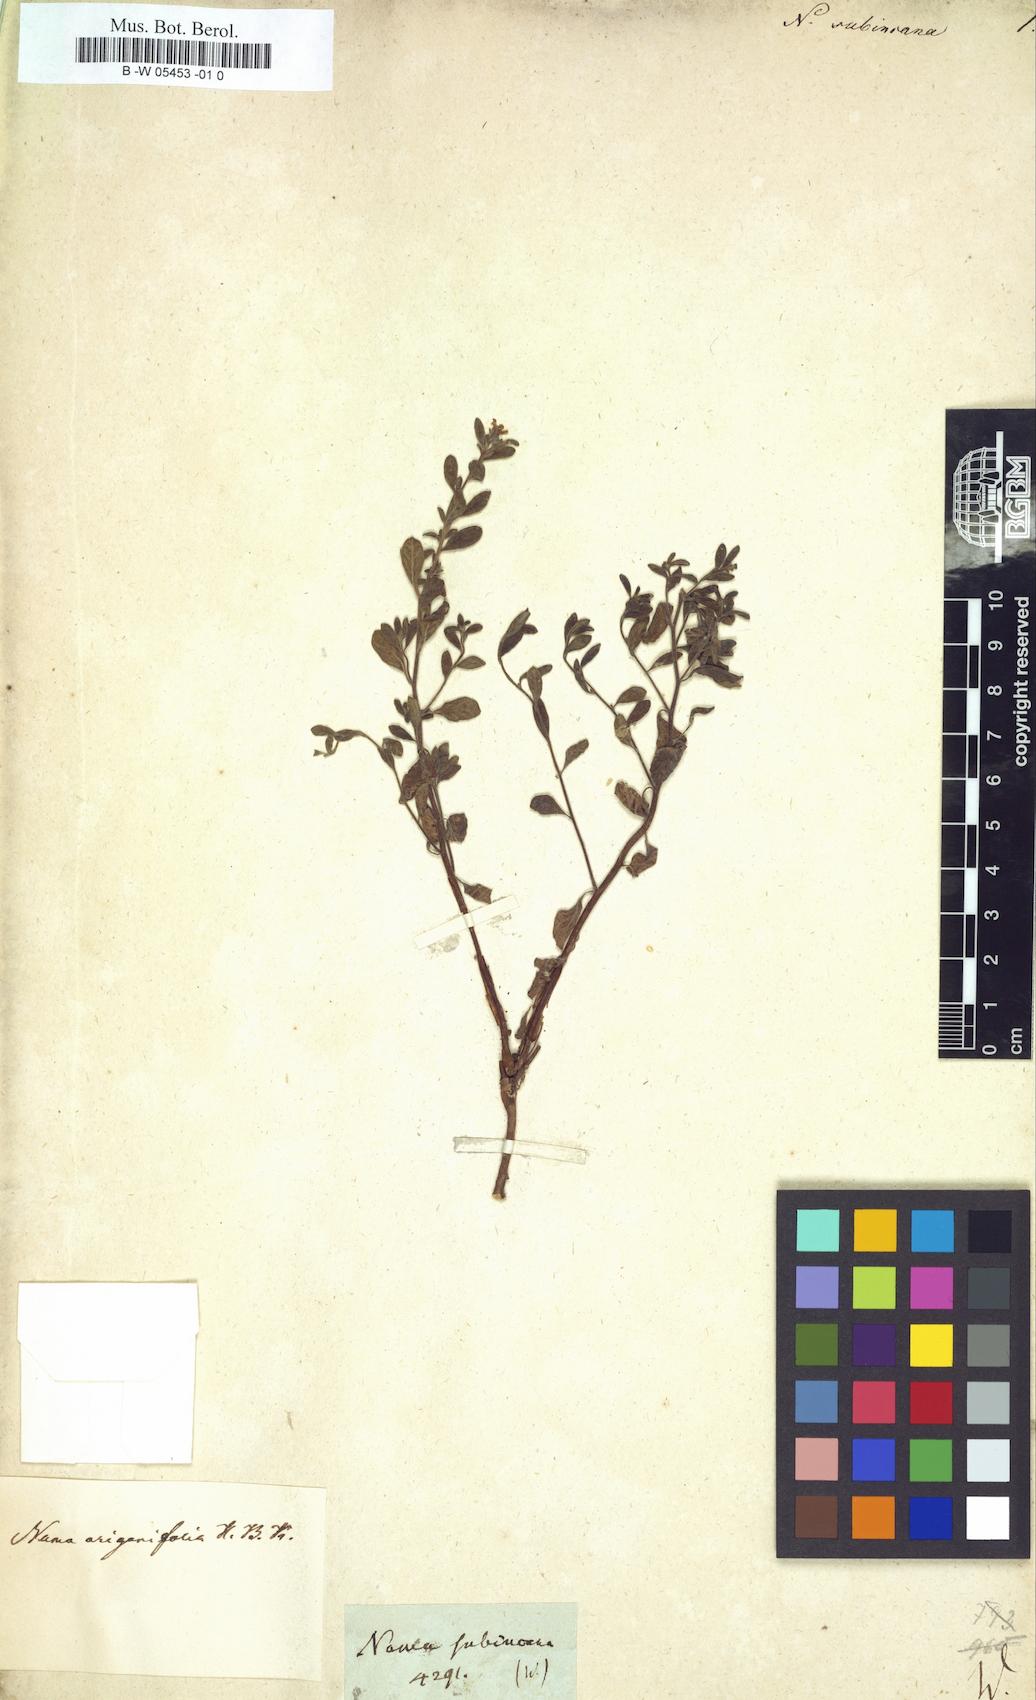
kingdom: Plantae
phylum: Tracheophyta
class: Magnoliopsida
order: Boraginales
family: Namaceae
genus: Nama
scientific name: Nama origanifolia
